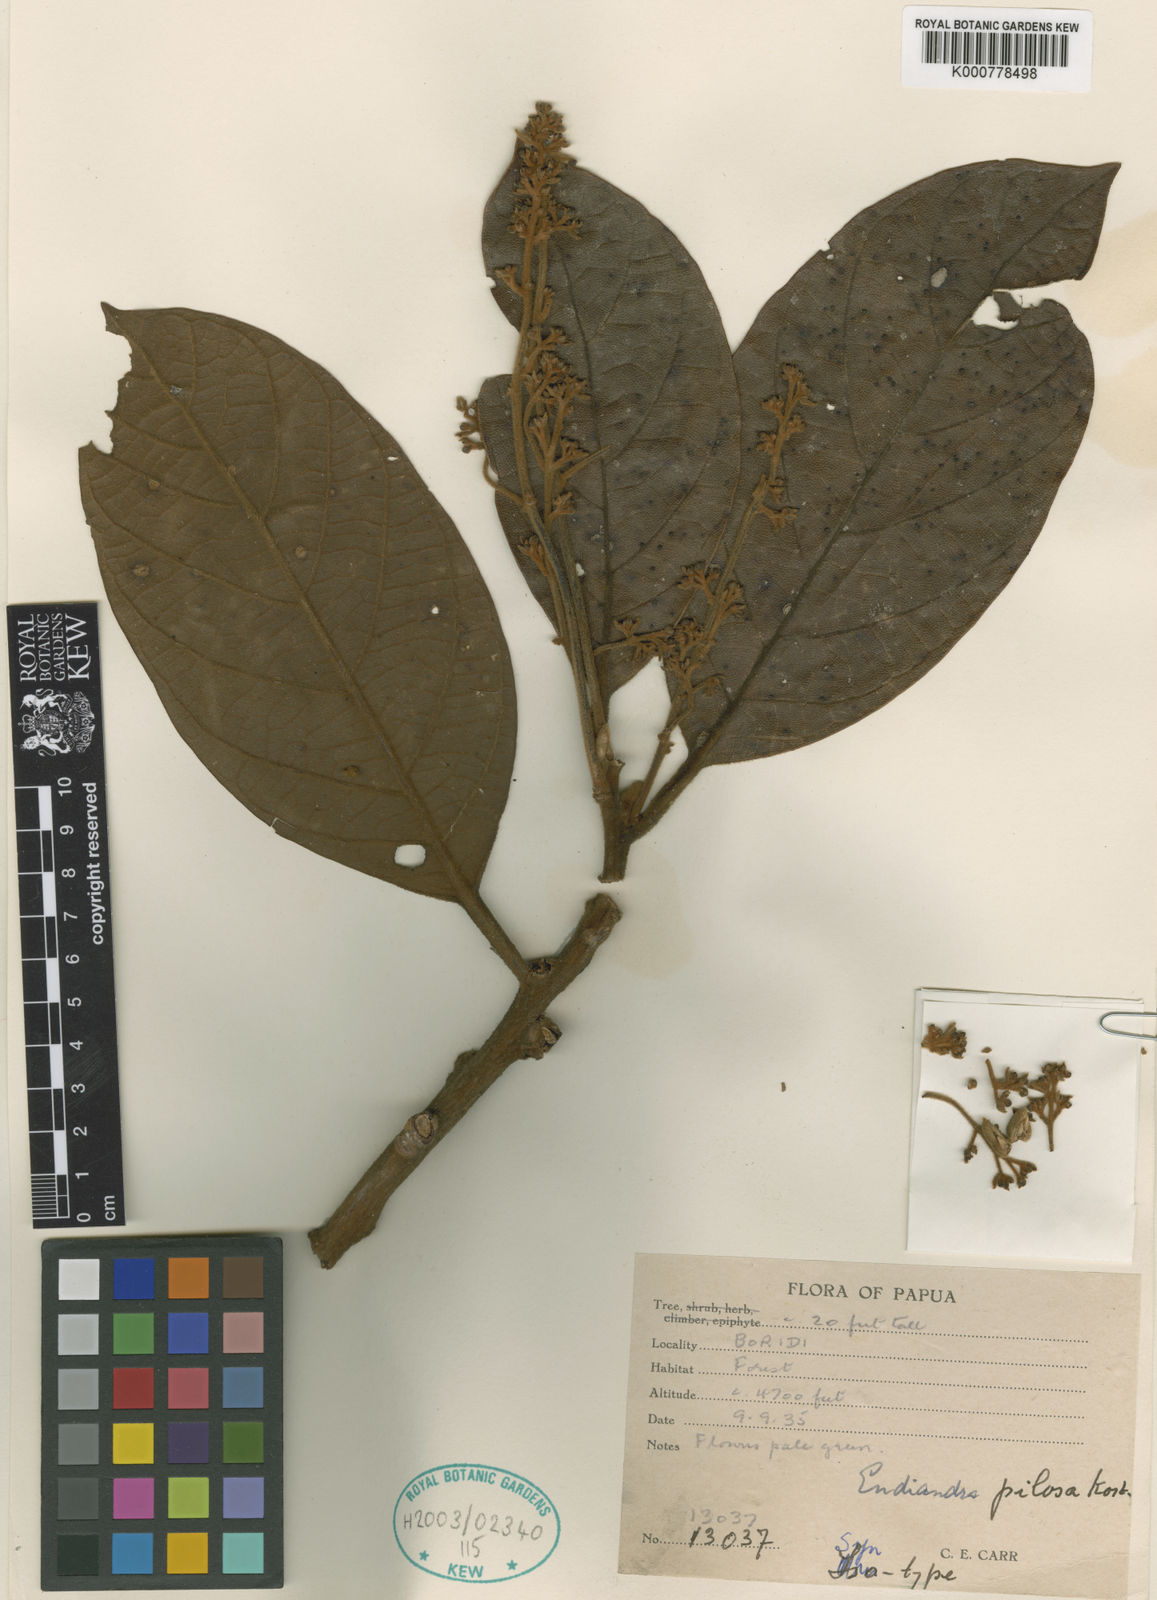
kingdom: Plantae
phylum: Tracheophyta
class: Magnoliopsida
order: Laurales
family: Lauraceae
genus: Endiandra
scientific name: Endiandra pilosa
